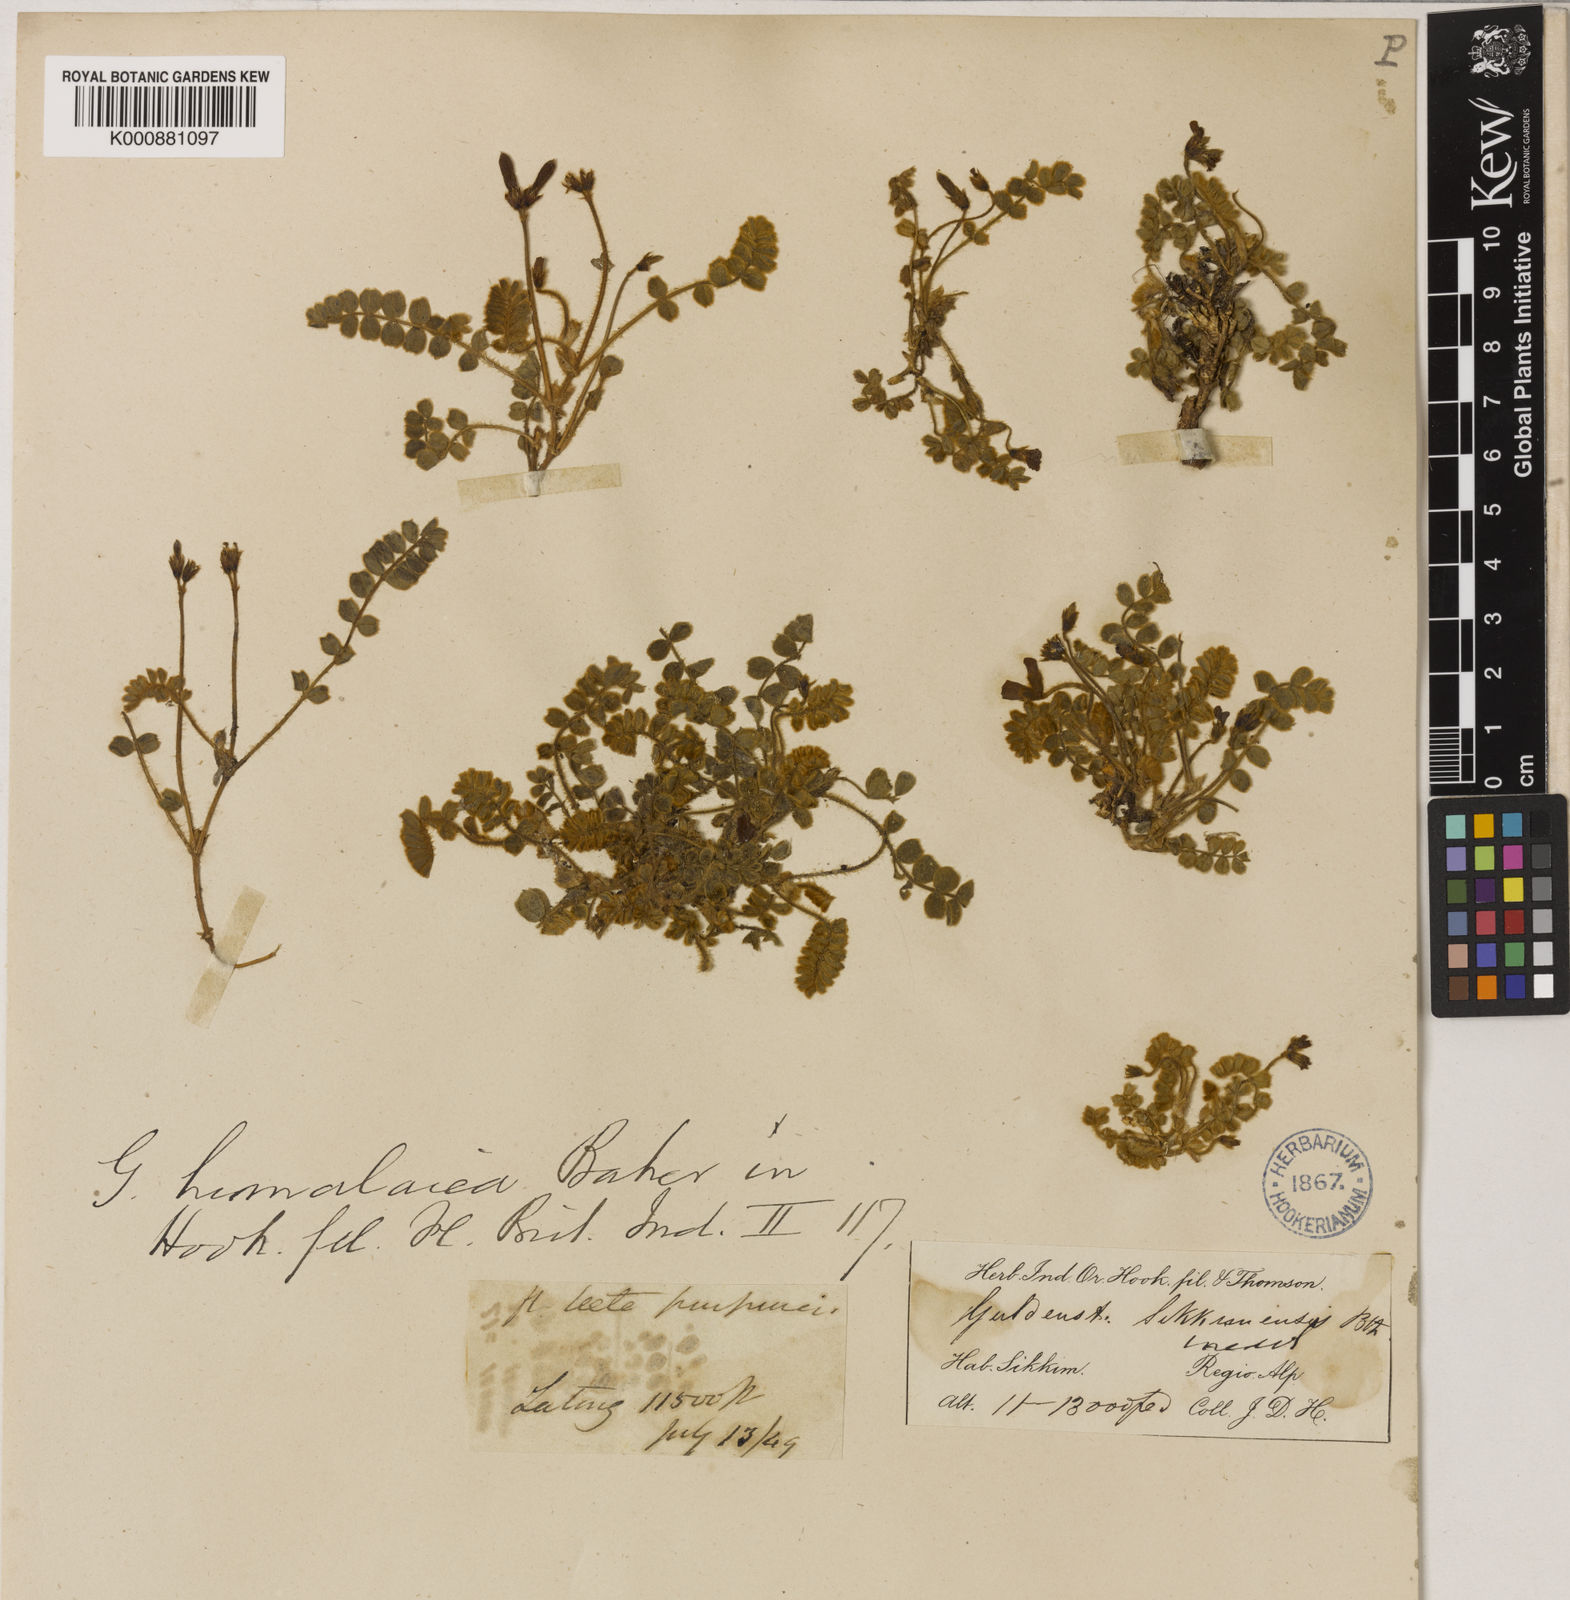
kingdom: Plantae
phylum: Tracheophyta
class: Magnoliopsida
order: Fabales
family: Fabaceae
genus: Tibetia
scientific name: Tibetia himalaica
